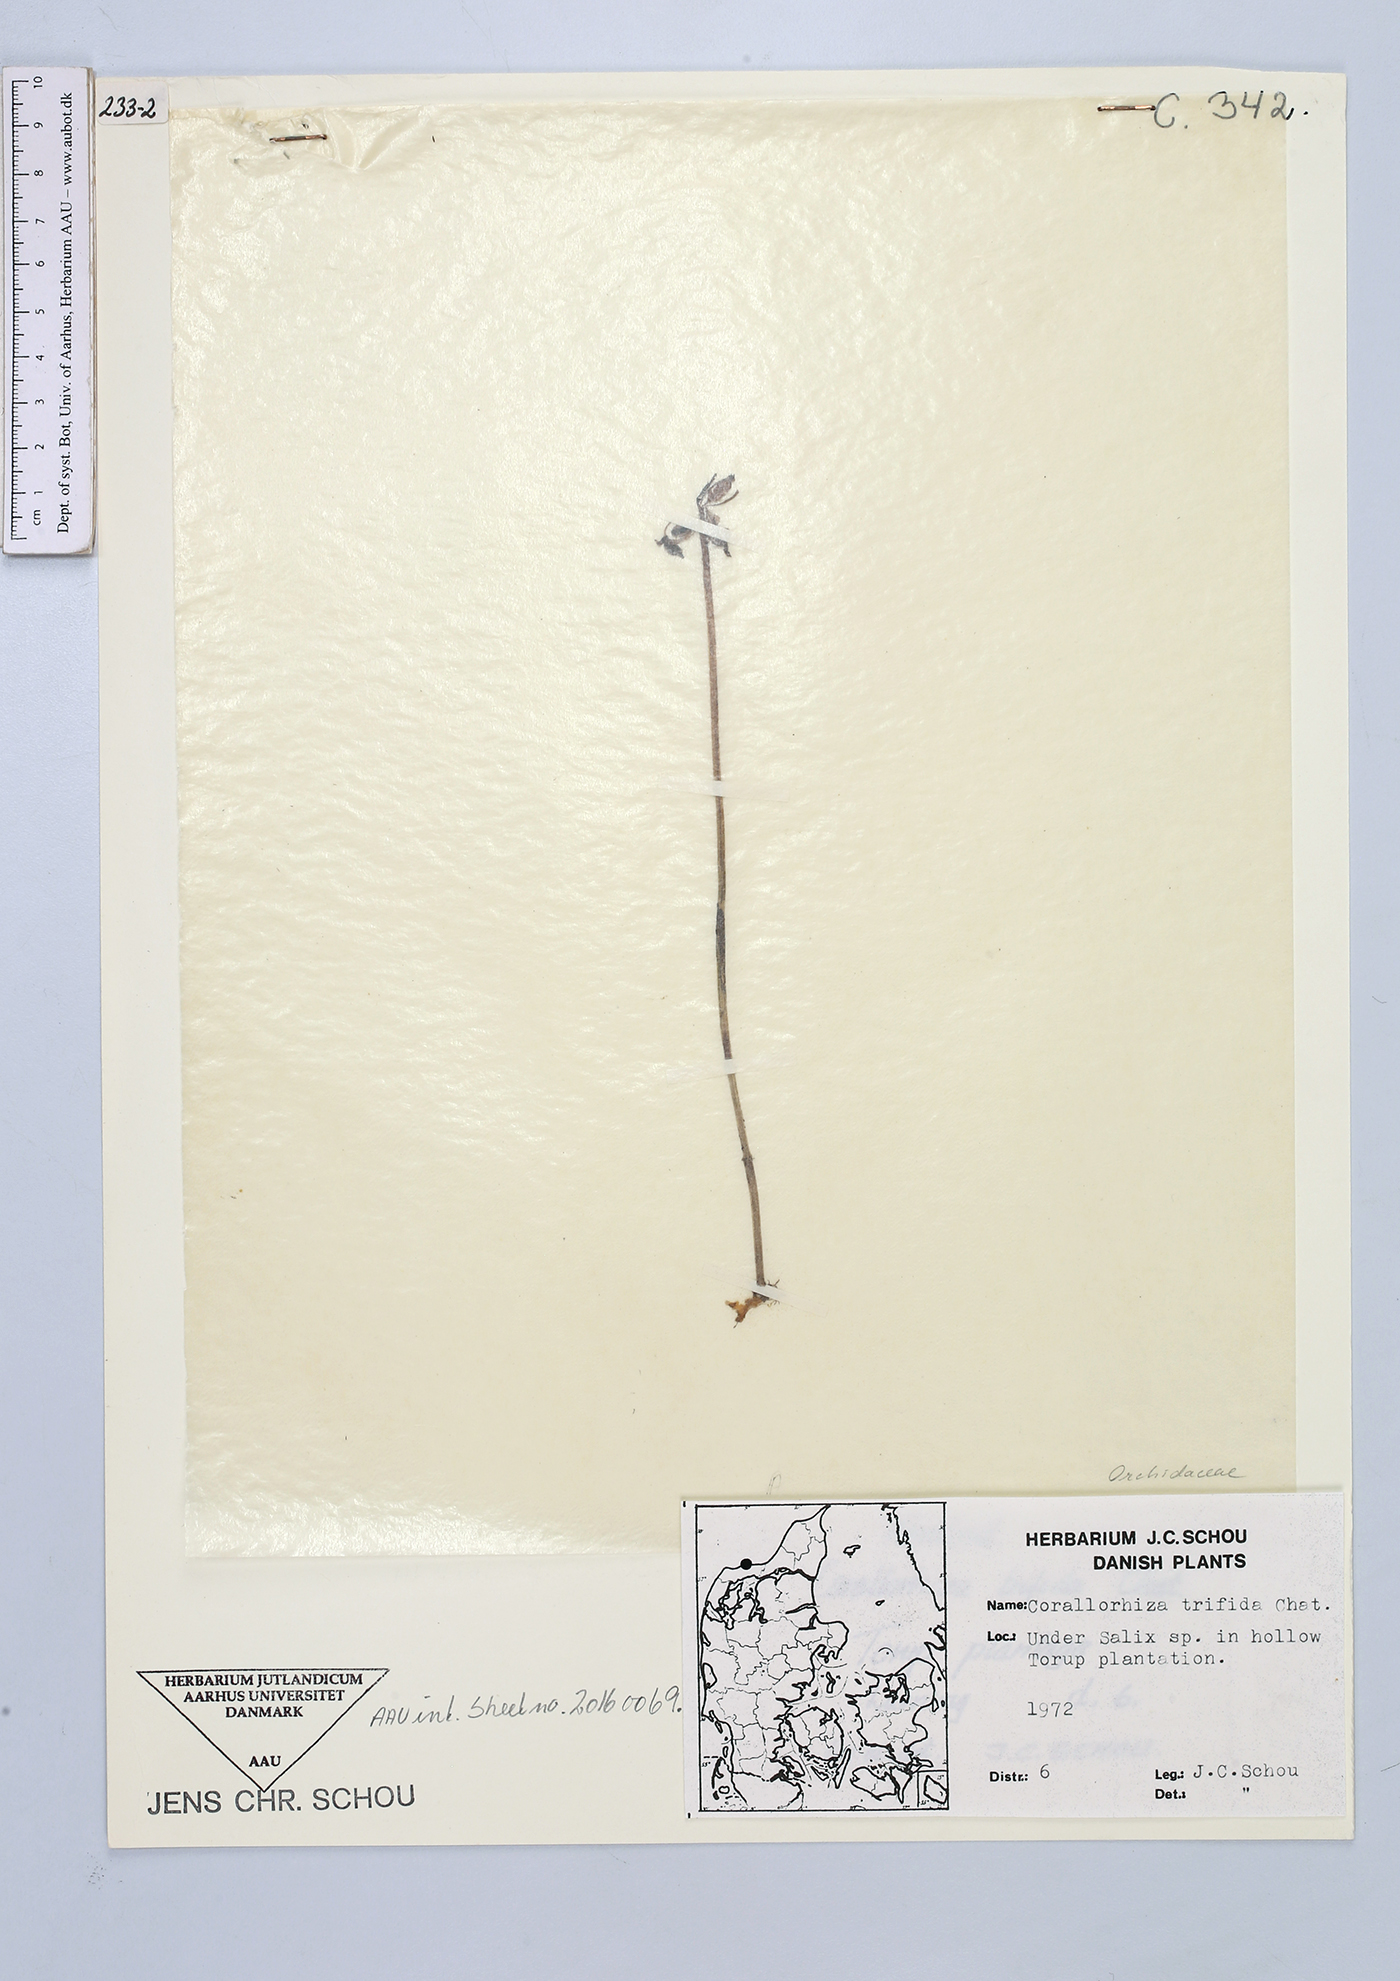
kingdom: Plantae
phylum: Tracheophyta
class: Liliopsida
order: Asparagales
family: Orchidaceae
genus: Corallorhiza
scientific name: Corallorhiza trifida
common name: Yellow coralroot
